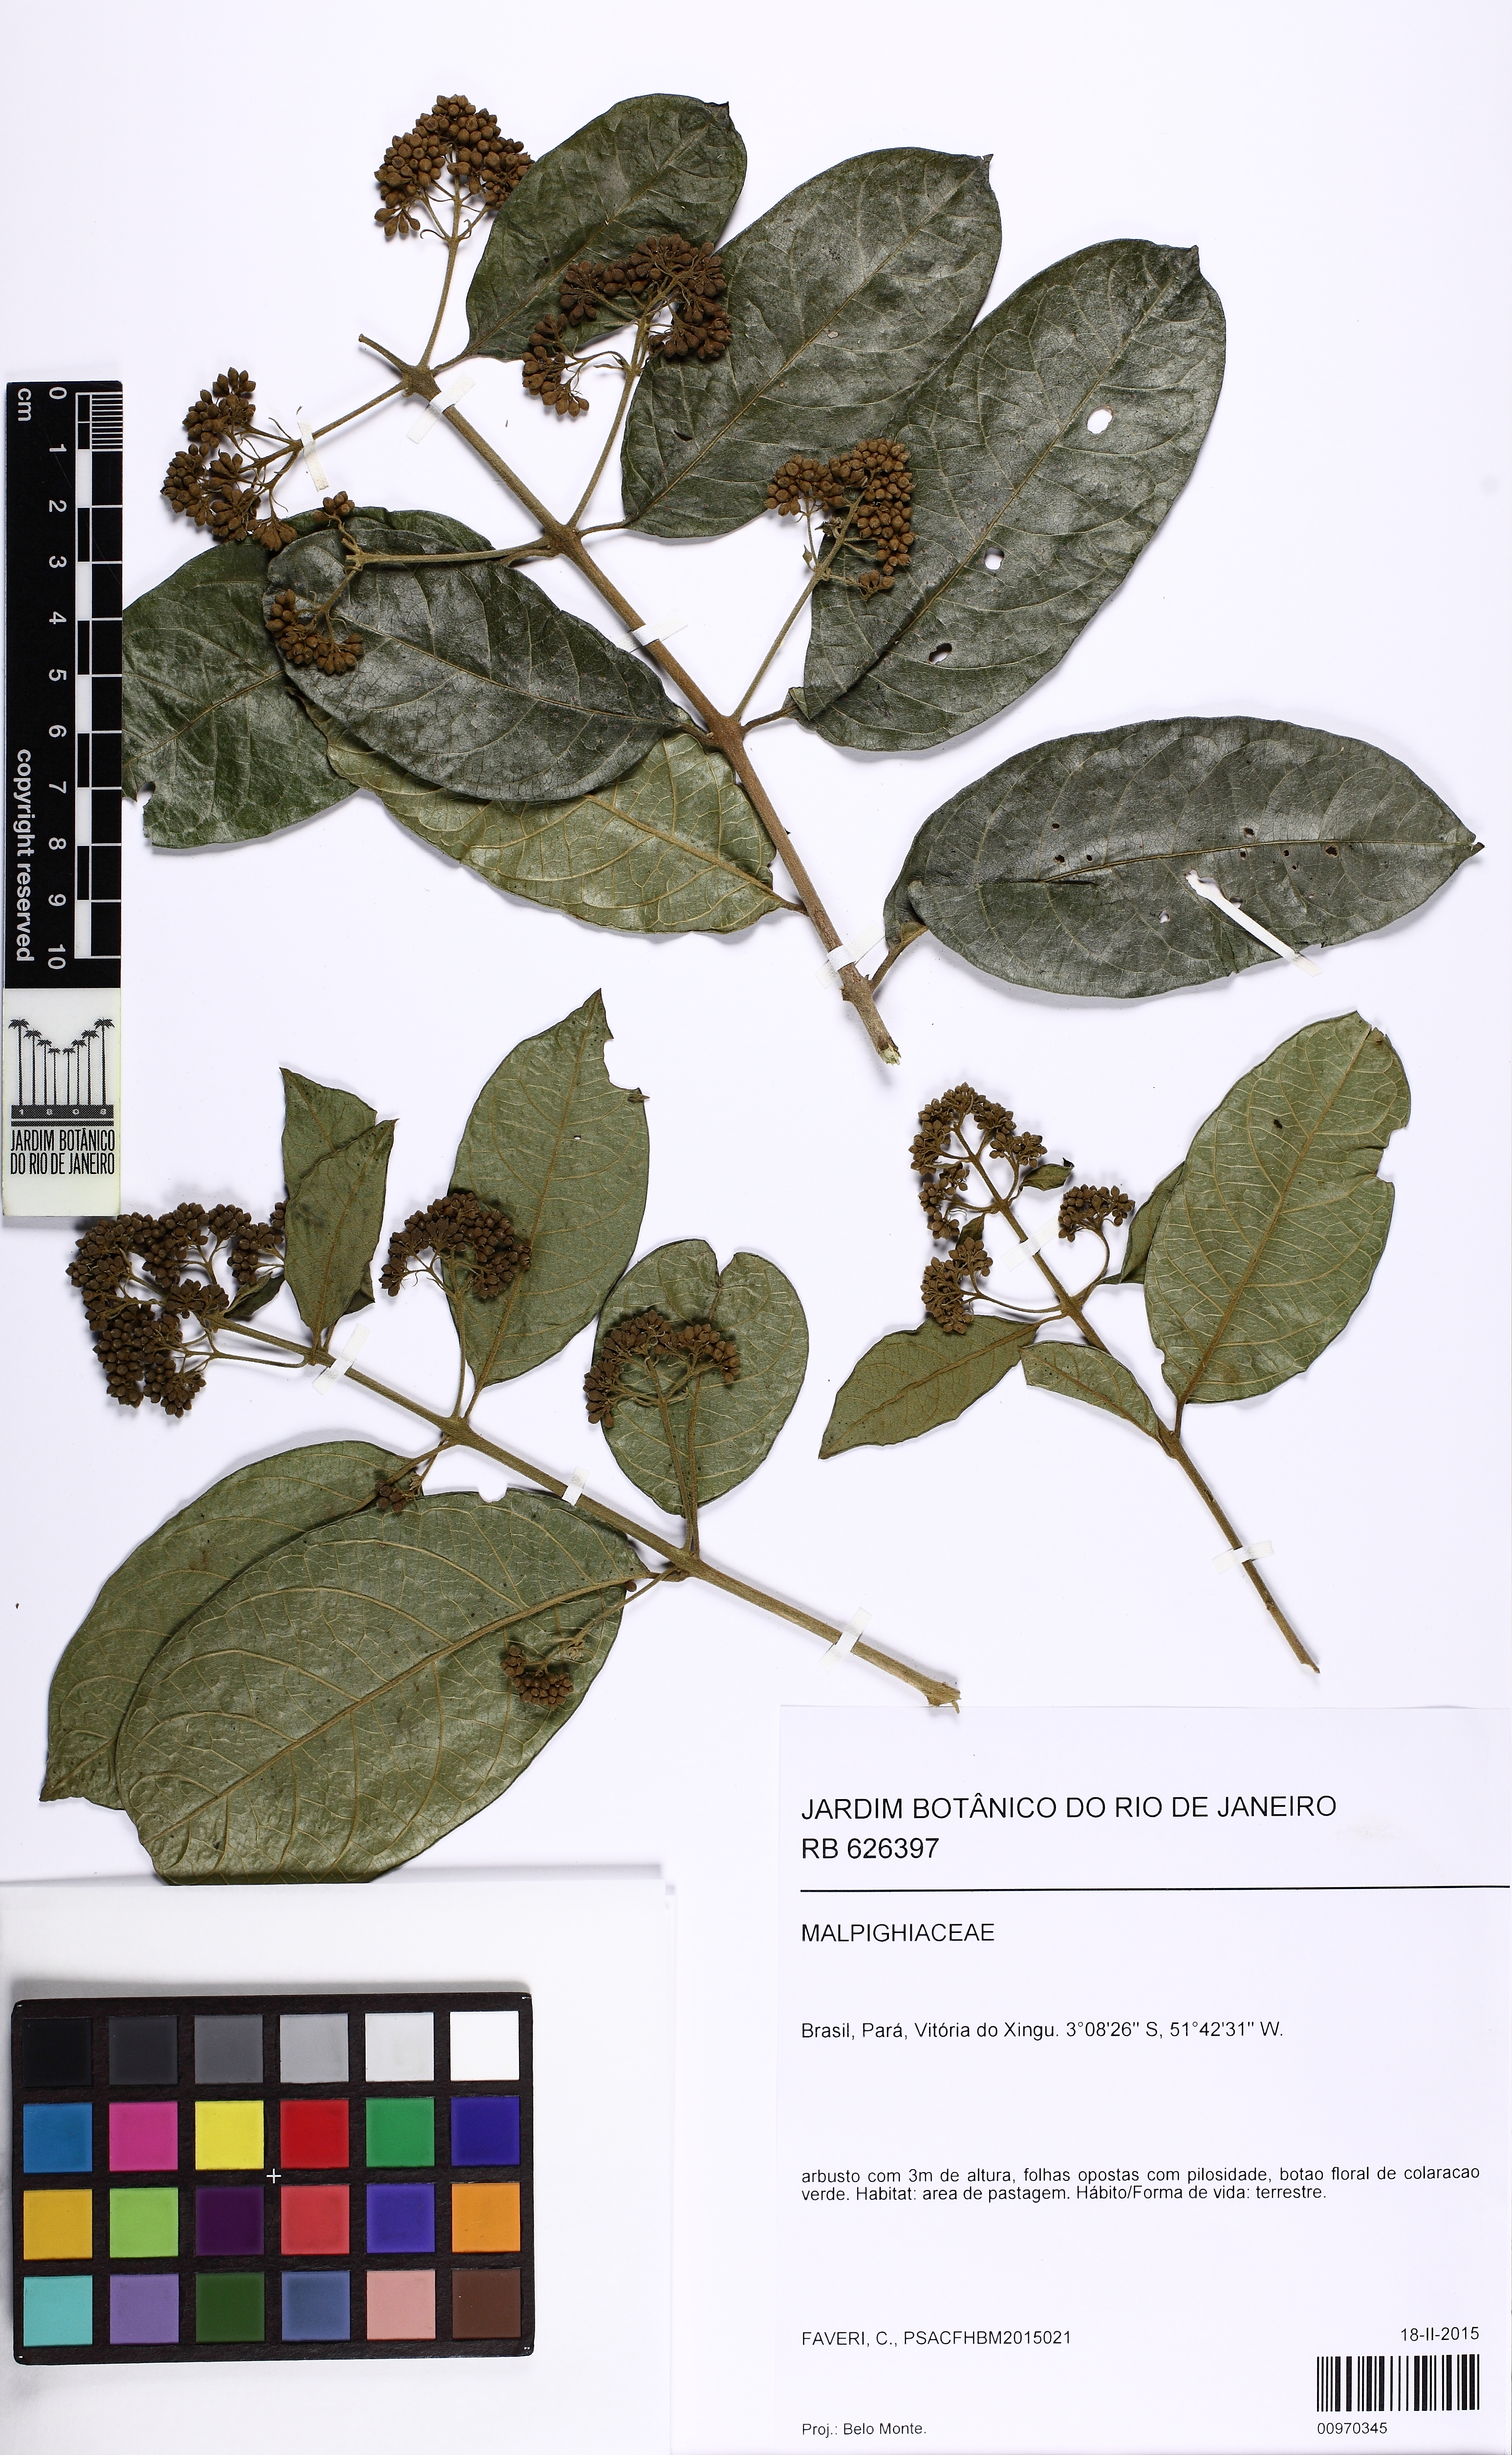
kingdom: Plantae
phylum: Tracheophyta
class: Magnoliopsida
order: Lamiales
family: Lamiaceae
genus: Aegiphila
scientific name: Aegiphila
